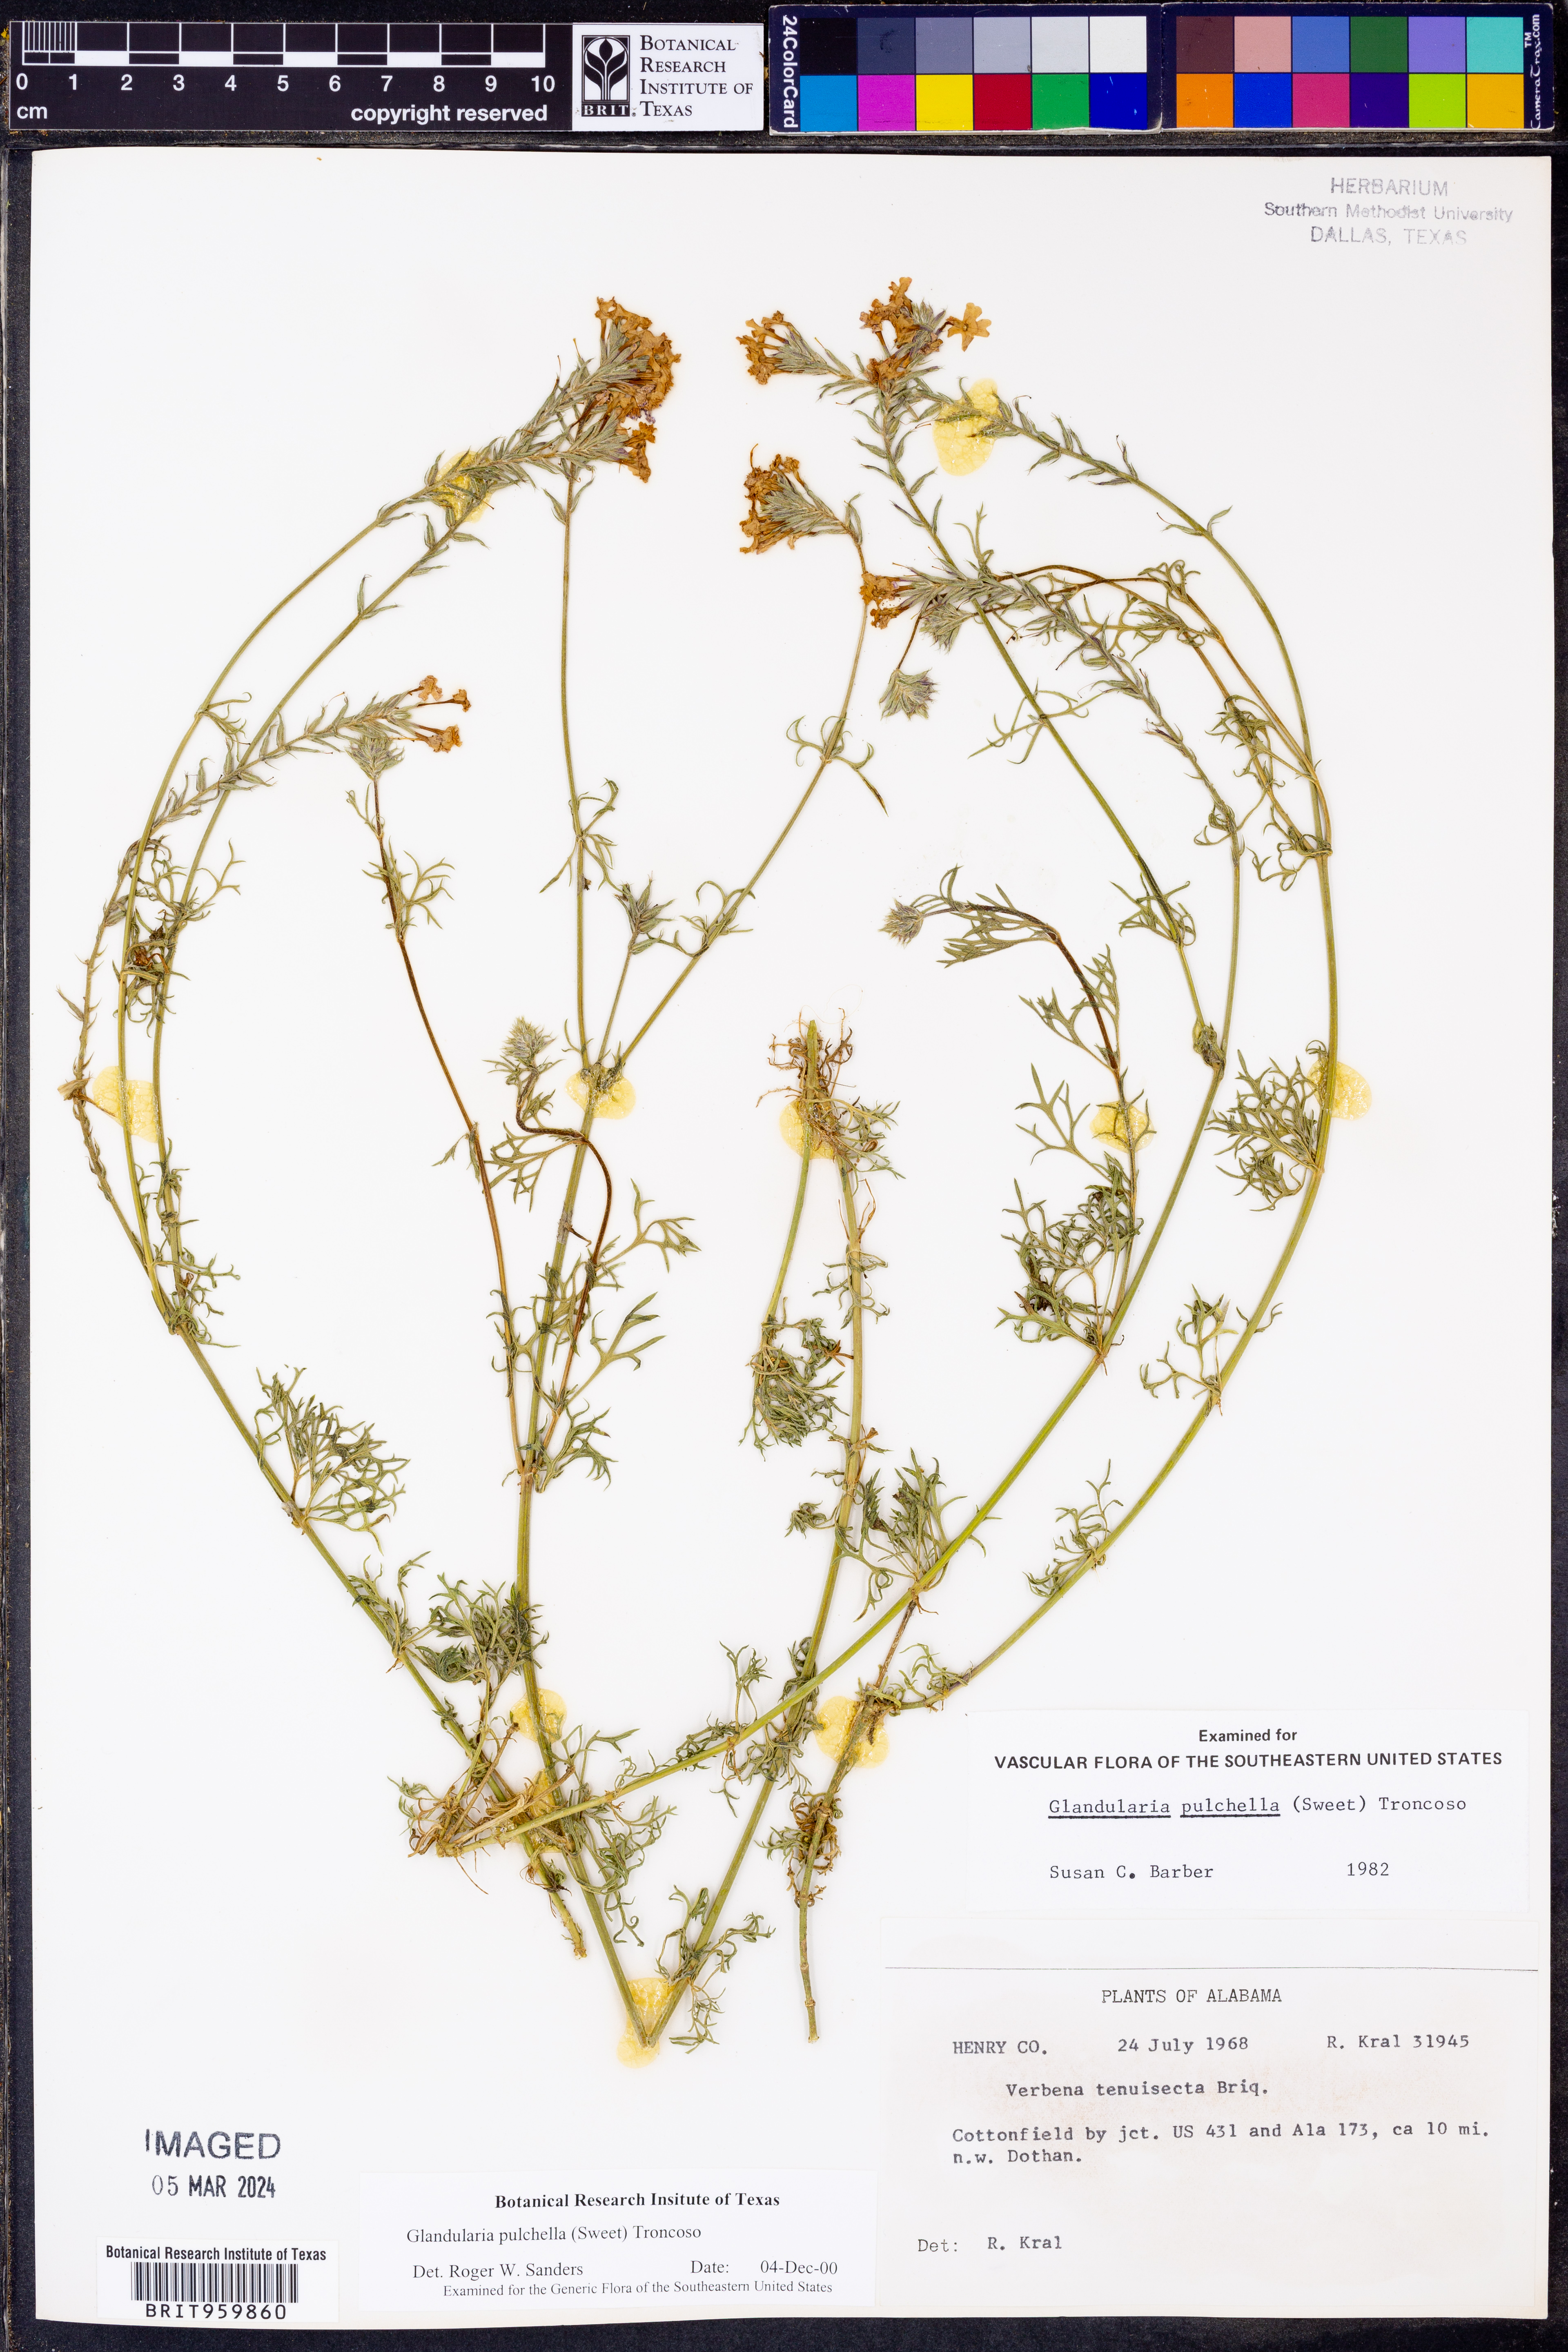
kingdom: Plantae
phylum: Tracheophyta
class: Magnoliopsida
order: Lamiales
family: Verbenaceae
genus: Verbena
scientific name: Verbena tenera
